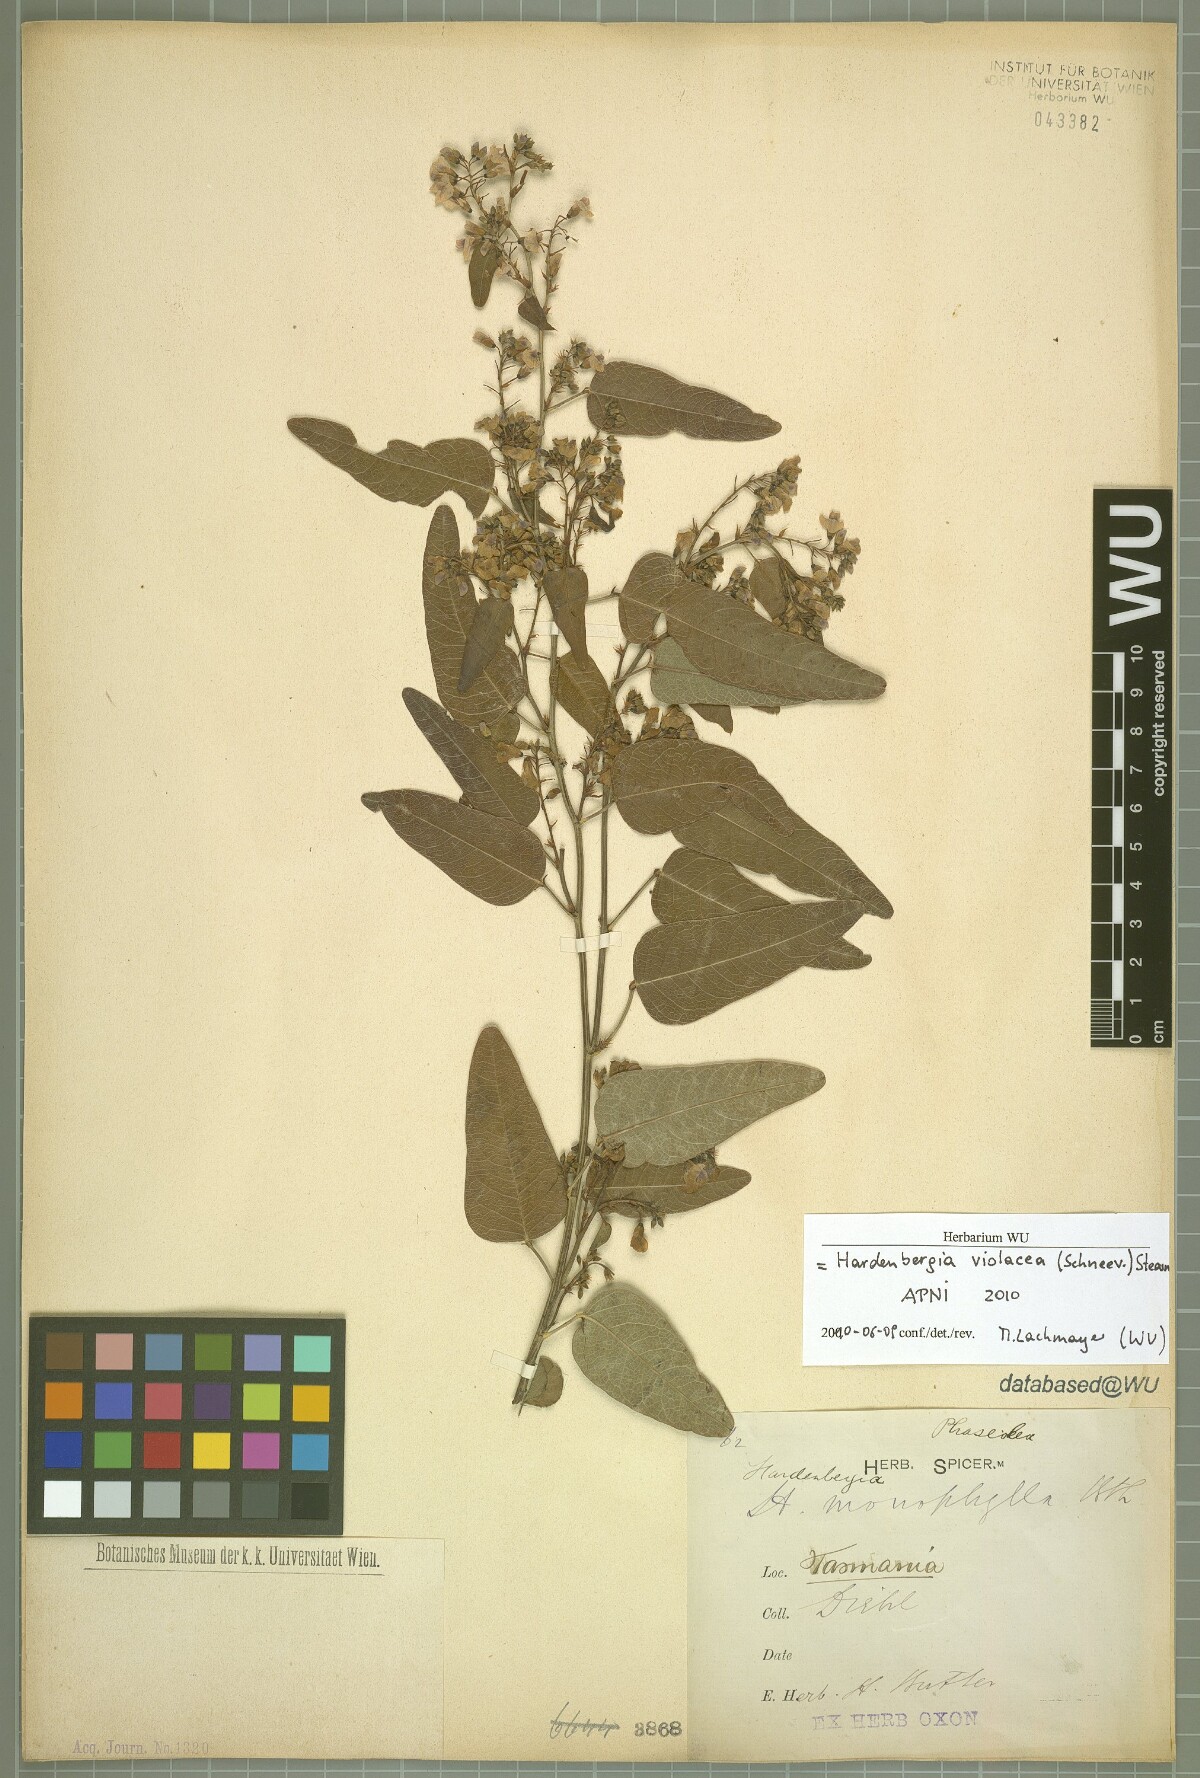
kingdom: Plantae
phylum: Tracheophyta
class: Magnoliopsida
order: Fabales
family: Fabaceae
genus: Hardenbergia
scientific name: Hardenbergia violacea
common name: Coral-pea
